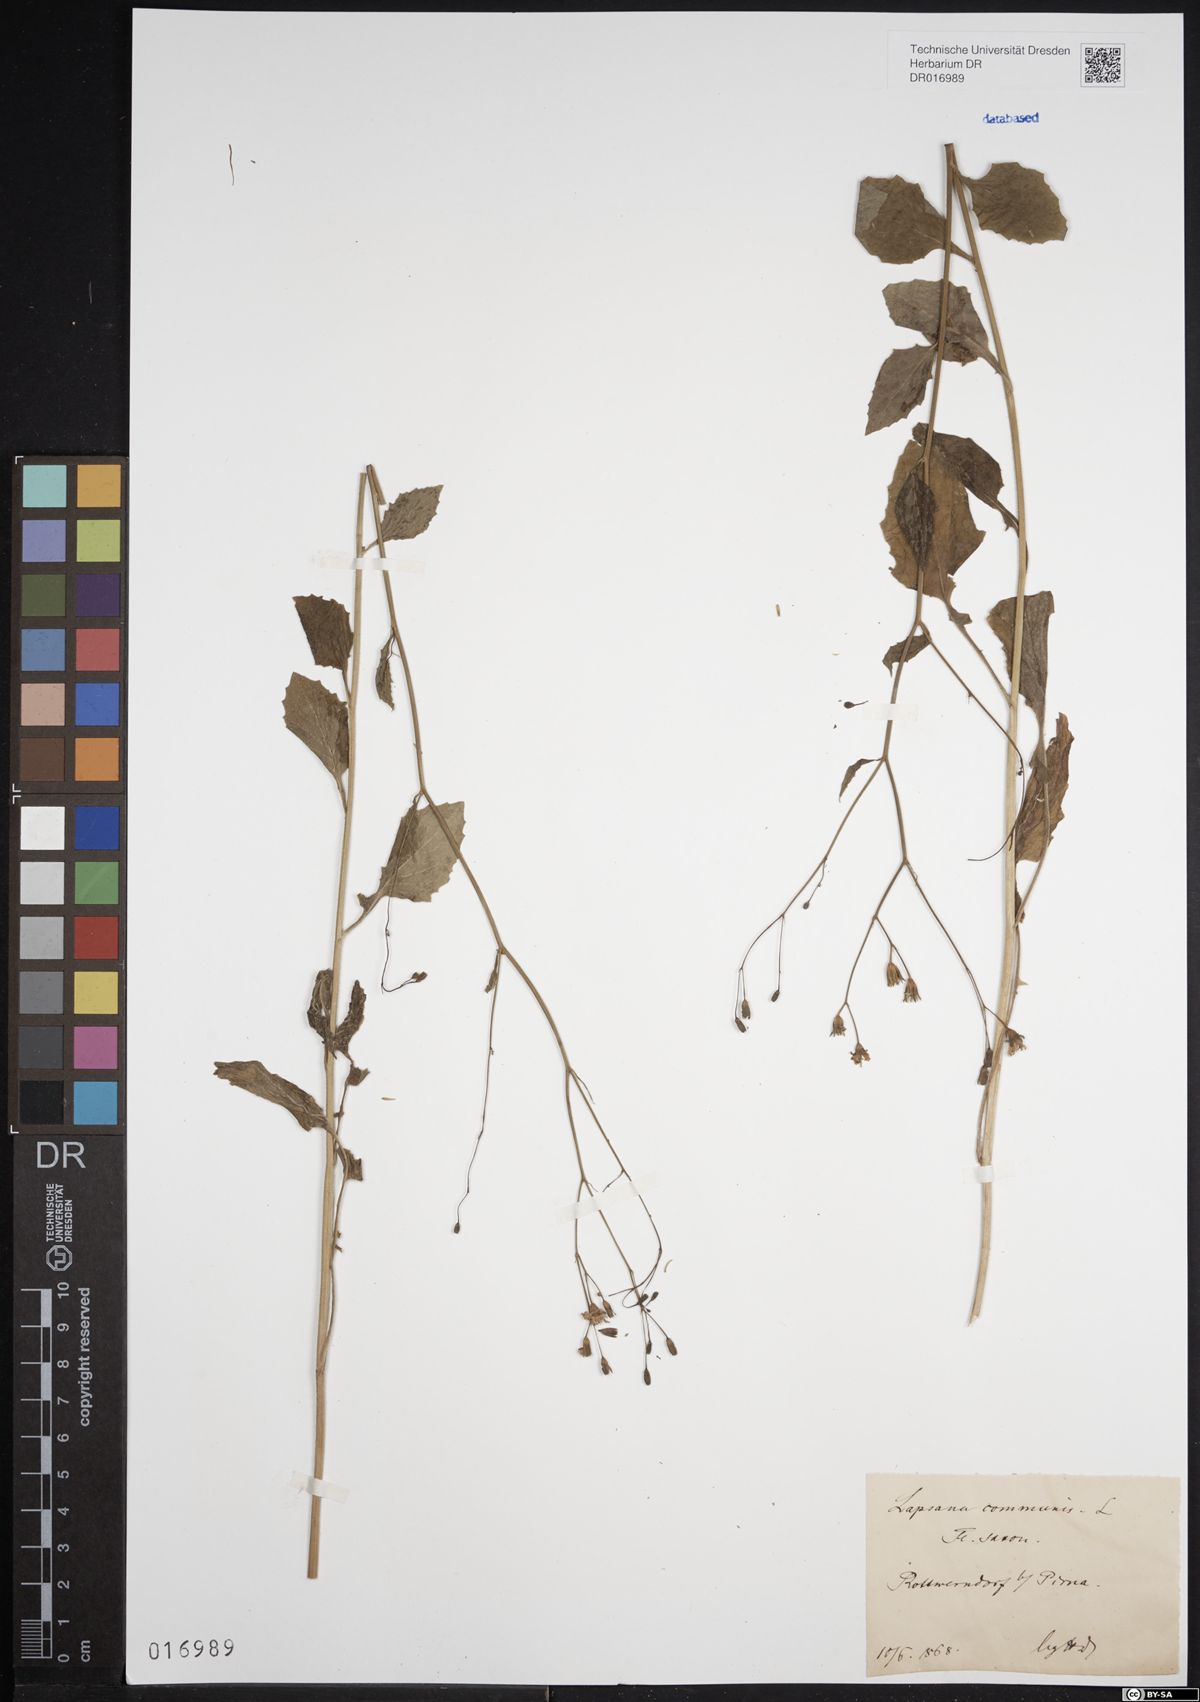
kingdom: Plantae
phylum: Tracheophyta
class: Magnoliopsida
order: Asterales
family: Asteraceae
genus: Lapsana
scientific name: Lapsana communis
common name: Nipplewort
